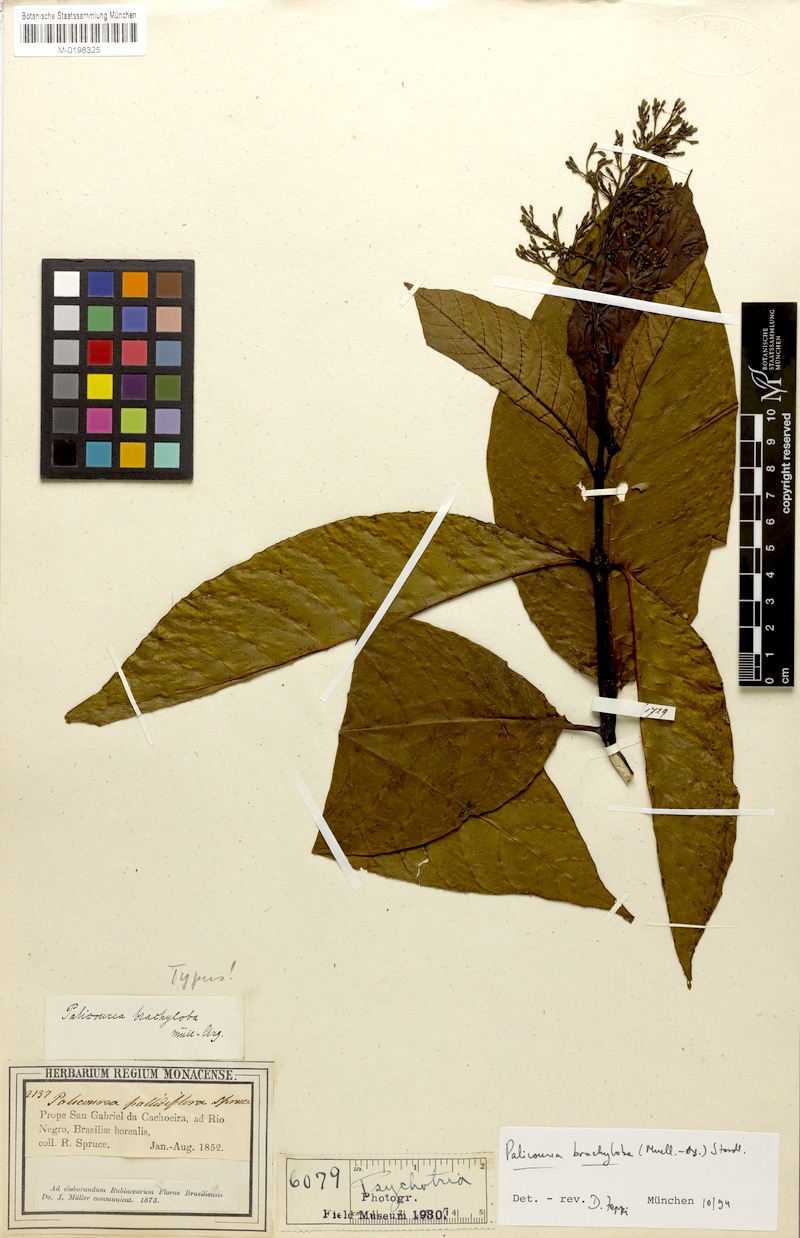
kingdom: Plantae
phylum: Tracheophyta
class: Magnoliopsida
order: Gentianales
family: Rubiaceae
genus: Palicourea
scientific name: Palicourea brachyloba
